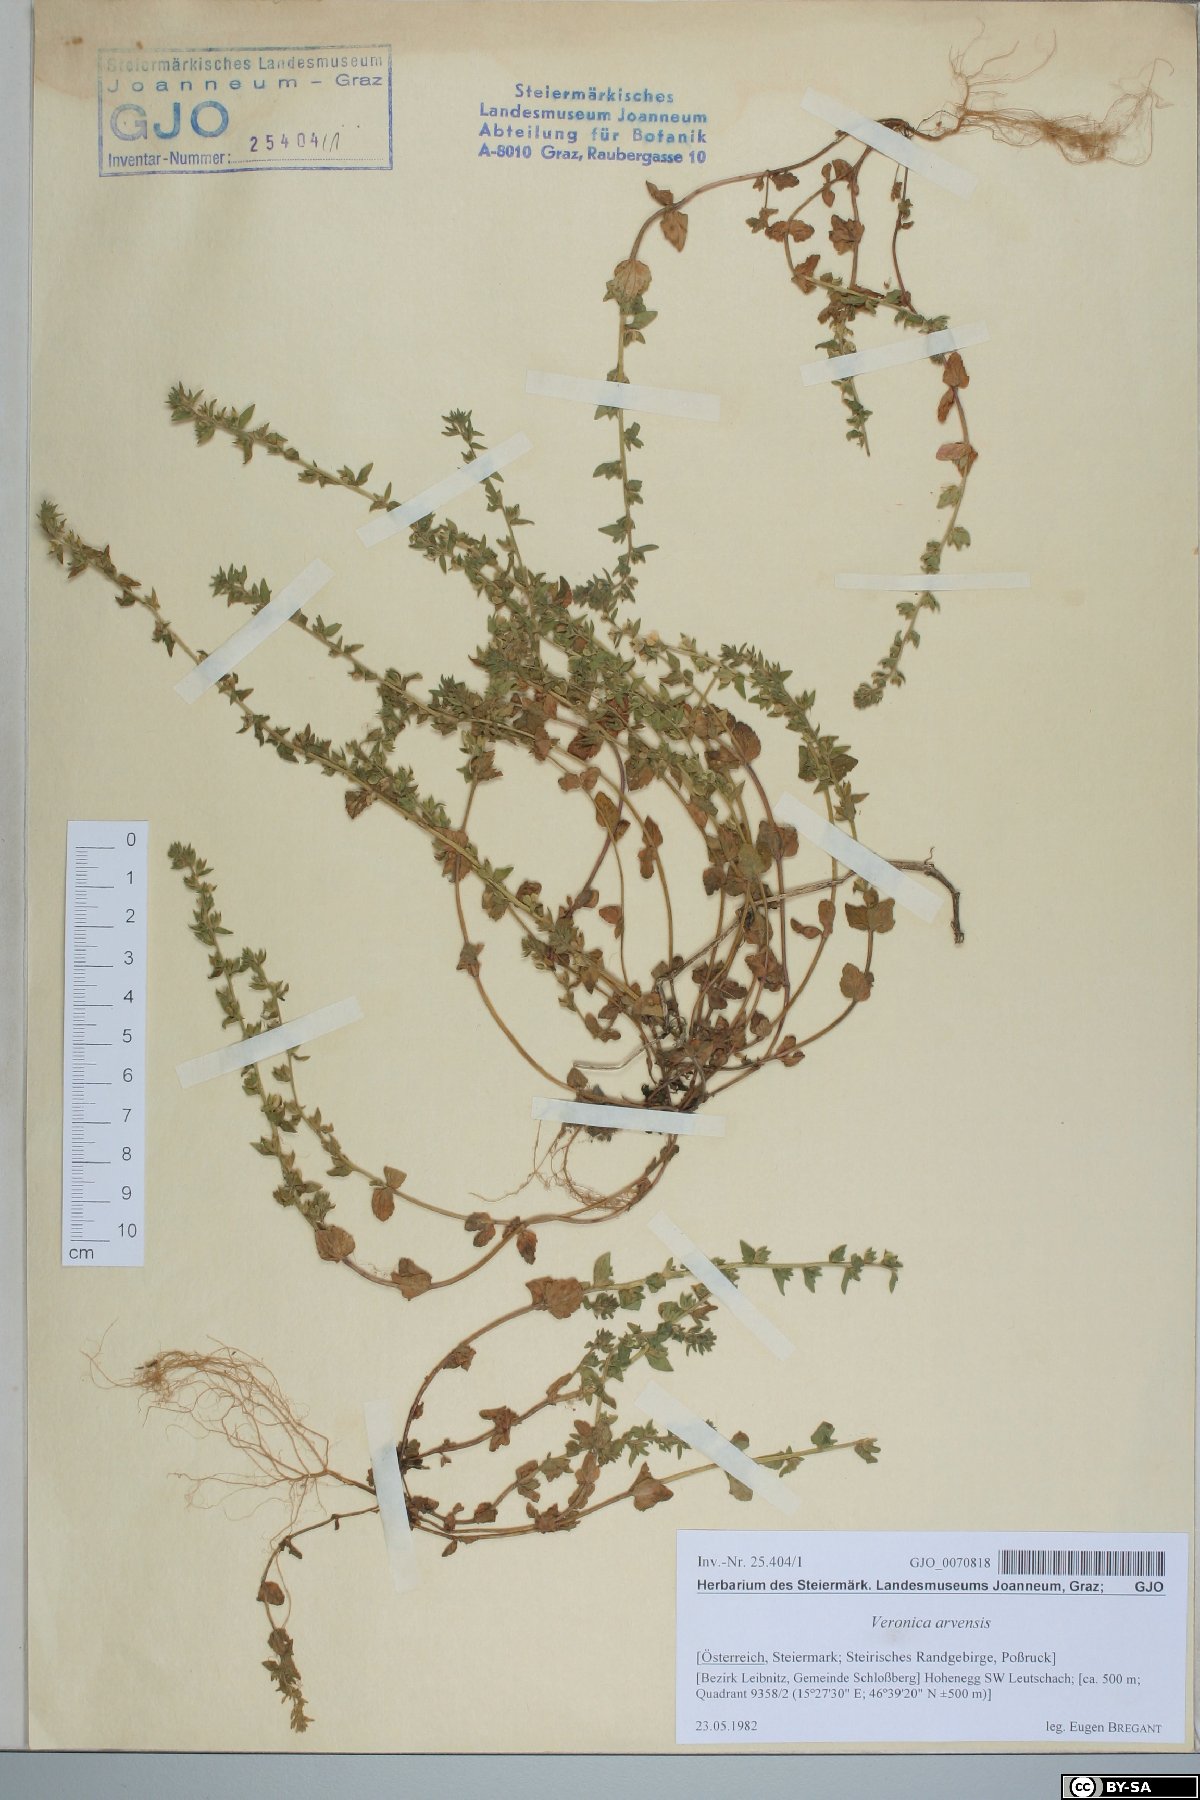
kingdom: Plantae
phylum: Tracheophyta
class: Magnoliopsida
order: Lamiales
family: Plantaginaceae
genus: Veronica
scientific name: Veronica arvensis
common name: Corn speedwell
